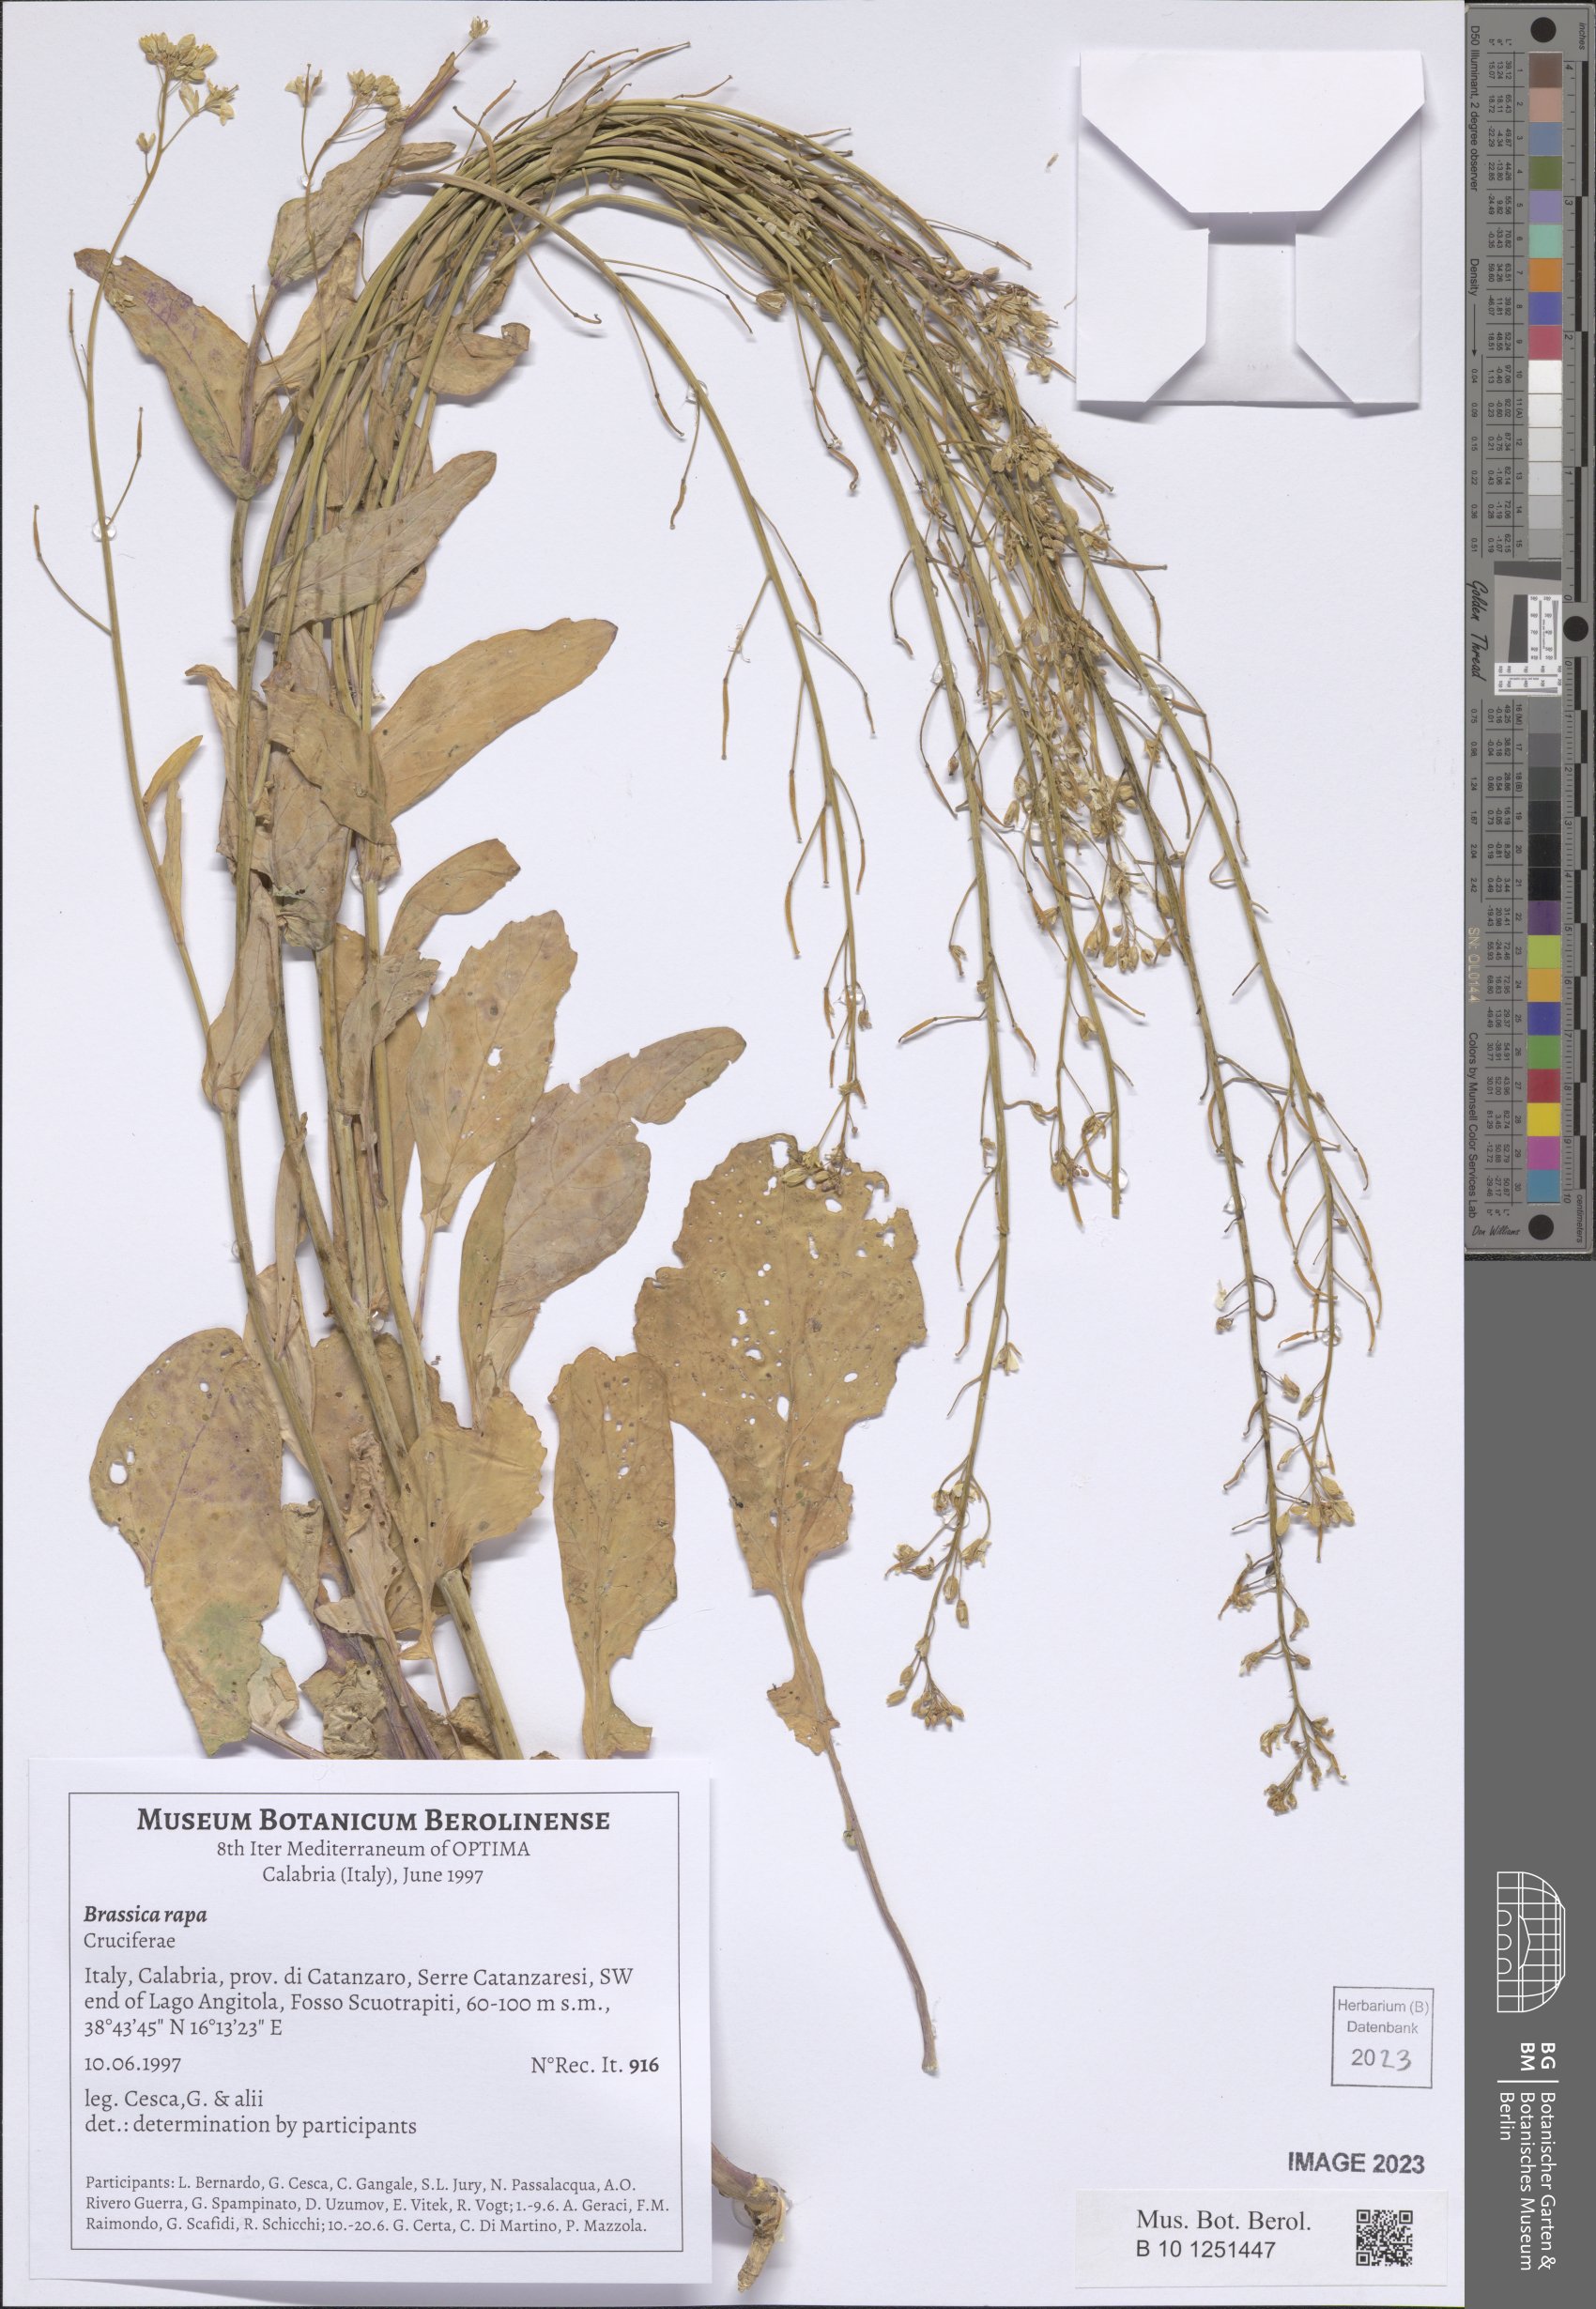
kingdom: Plantae
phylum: Tracheophyta
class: Magnoliopsida
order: Brassicales
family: Brassicaceae
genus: Brassica
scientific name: Brassica rapa
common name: Field mustard
